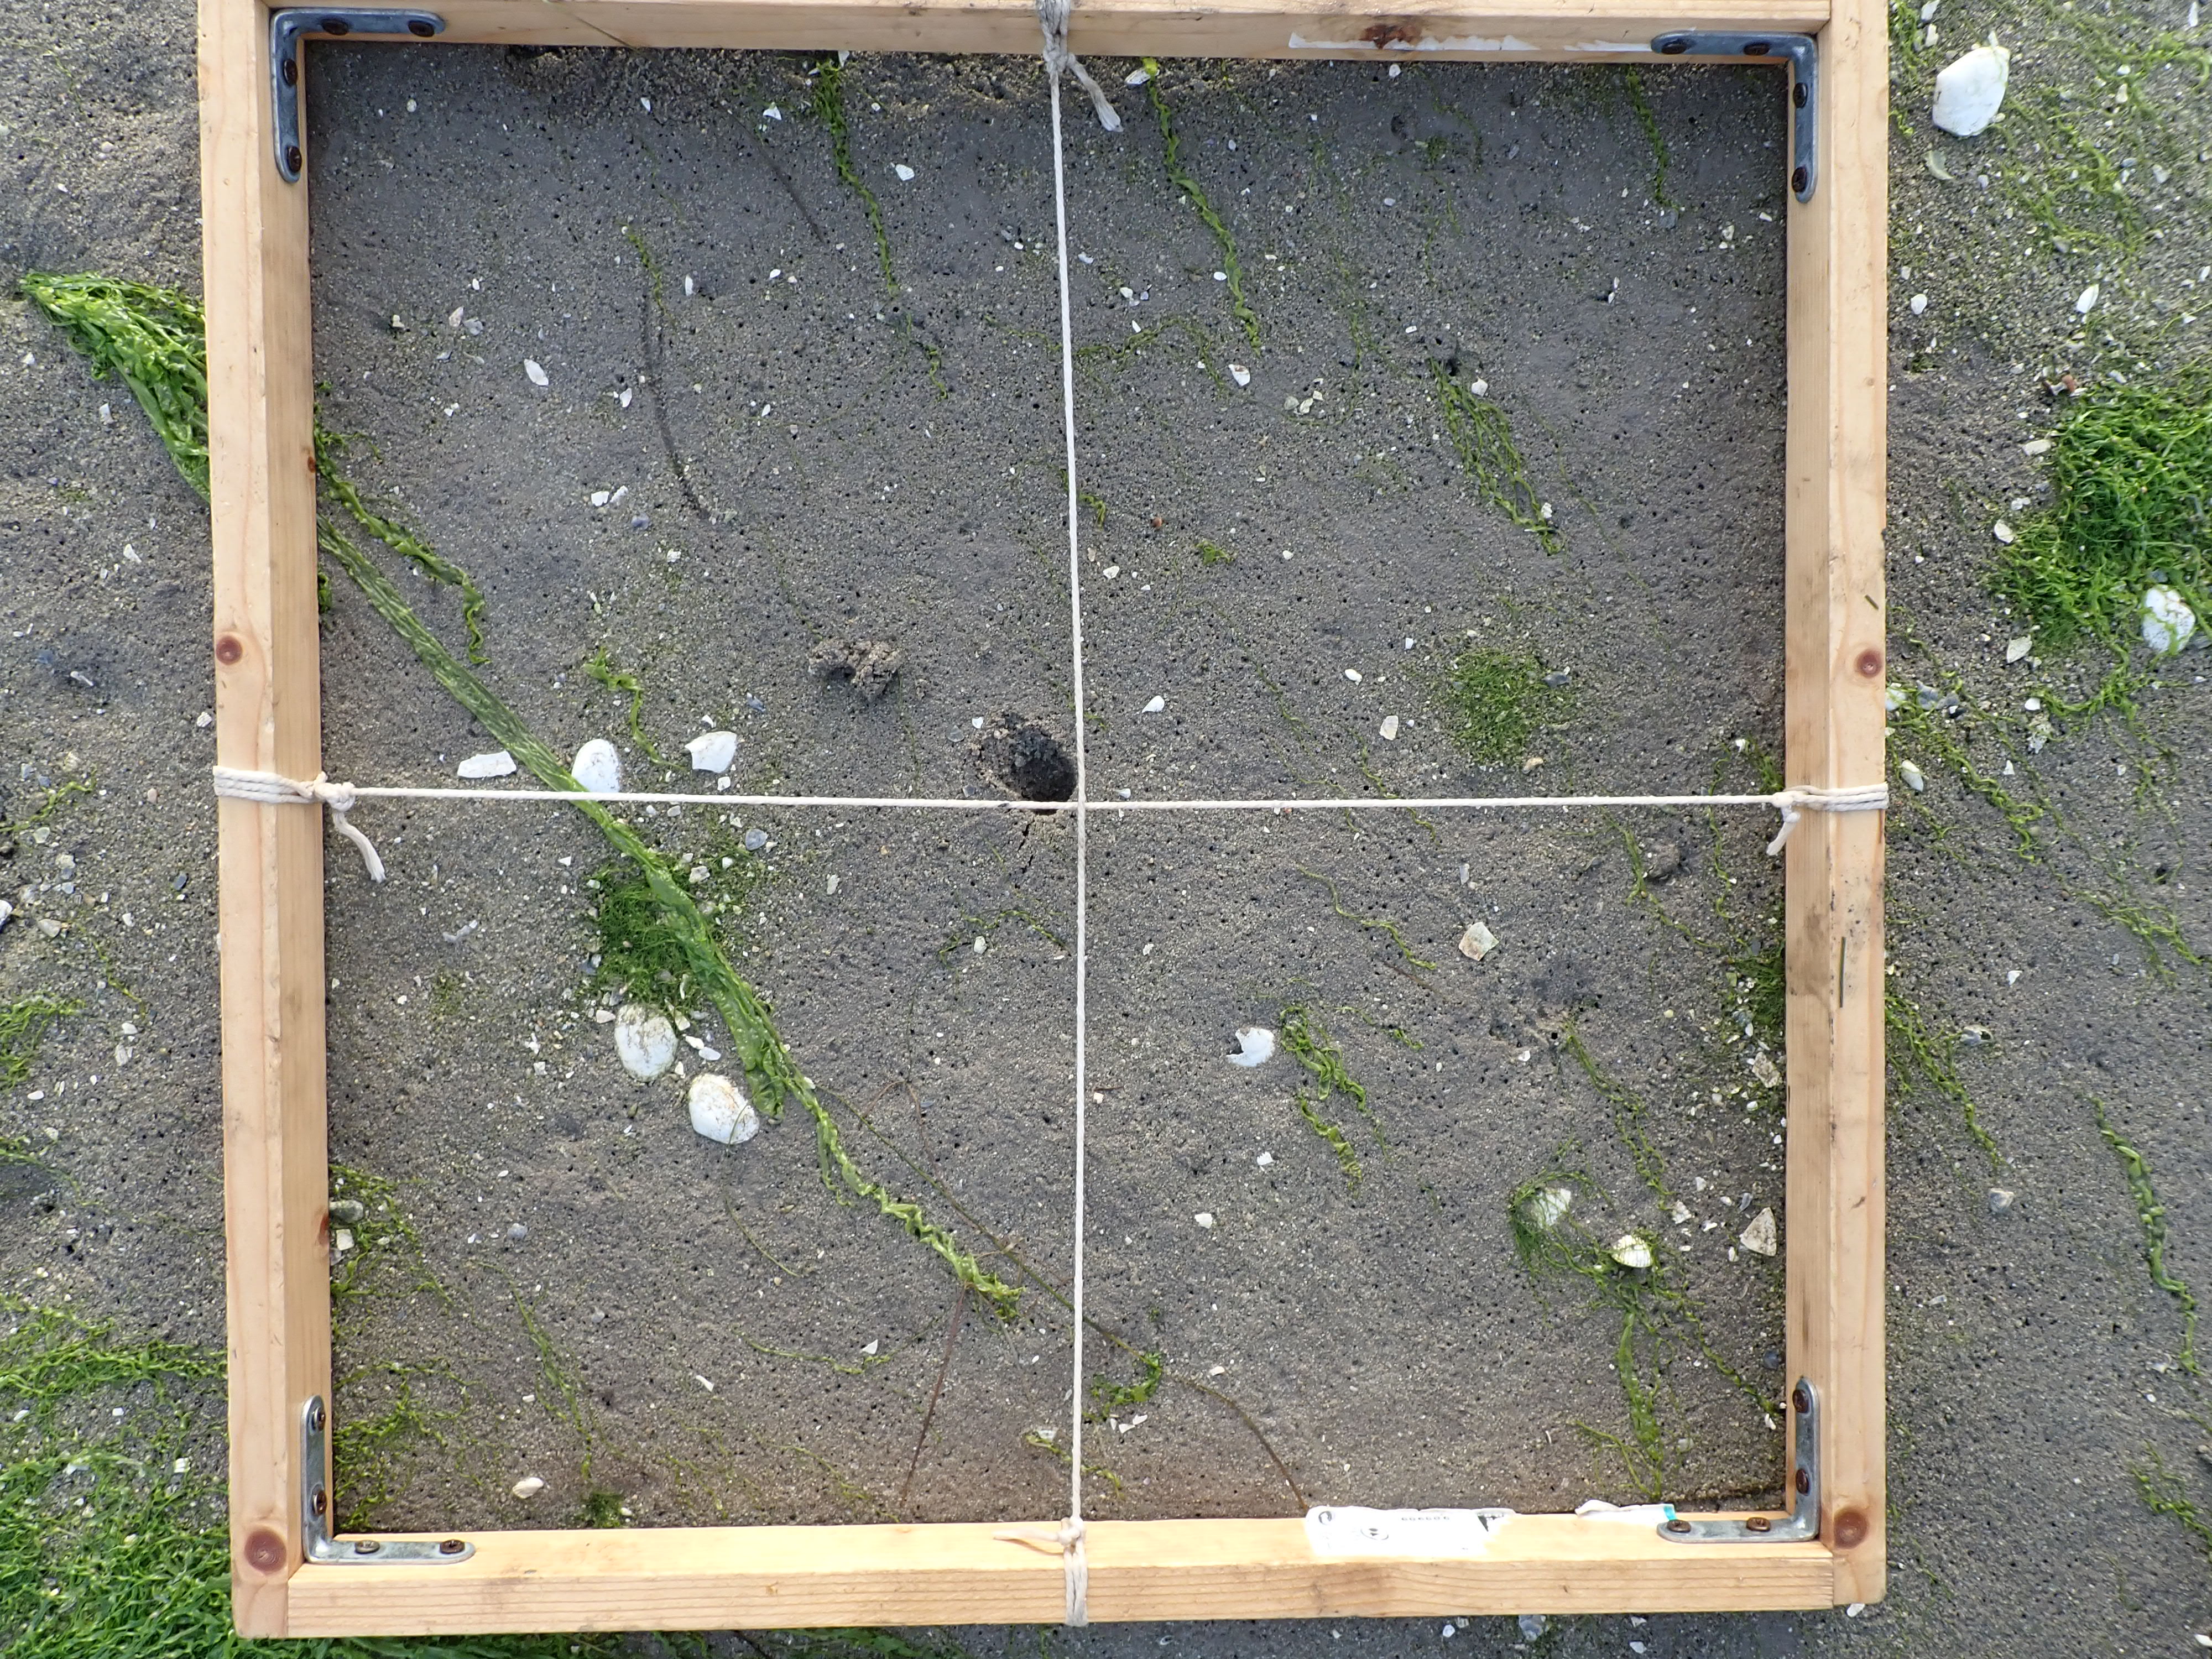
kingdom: Plantae
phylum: Chlorophyta
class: Ulvophyceae
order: Ulvales
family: Ulvaceae
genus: Ulva
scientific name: Ulva
